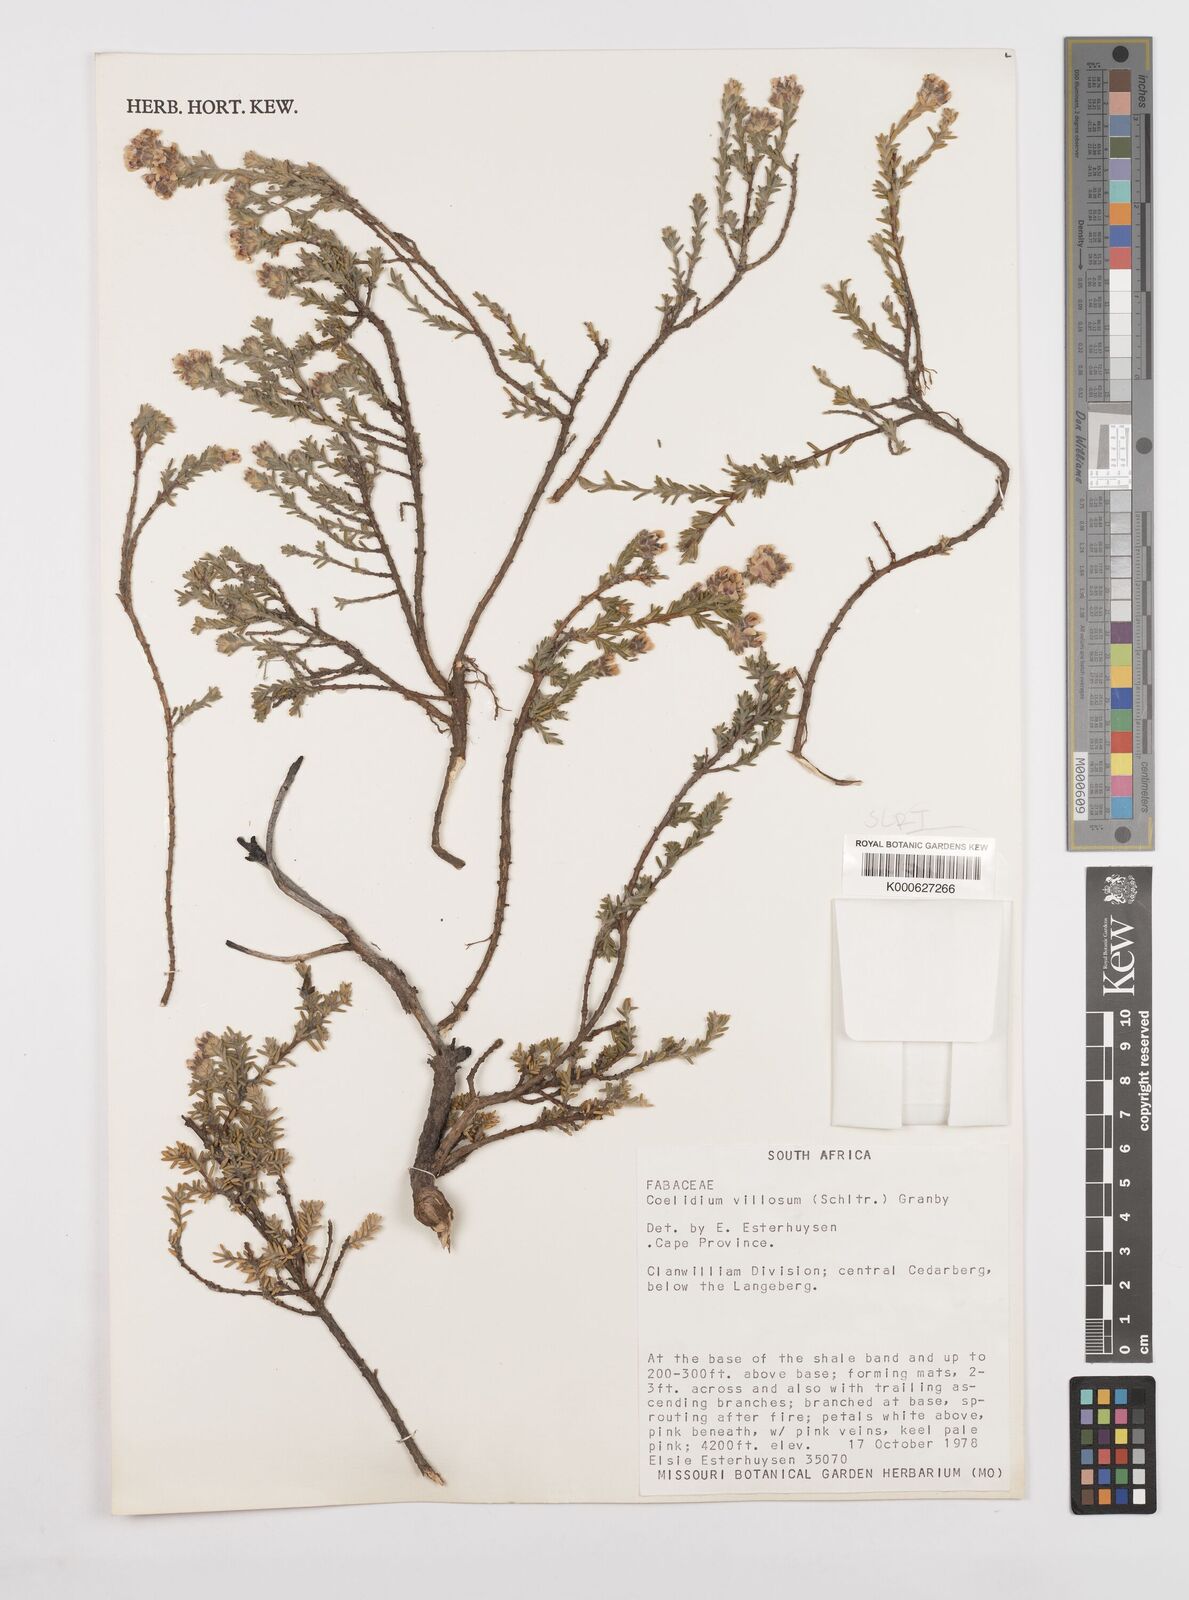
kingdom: Plantae
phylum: Tracheophyta
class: Magnoliopsida
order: Fabales
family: Fabaceae
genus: Amphithalea
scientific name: Amphithalea villosa
